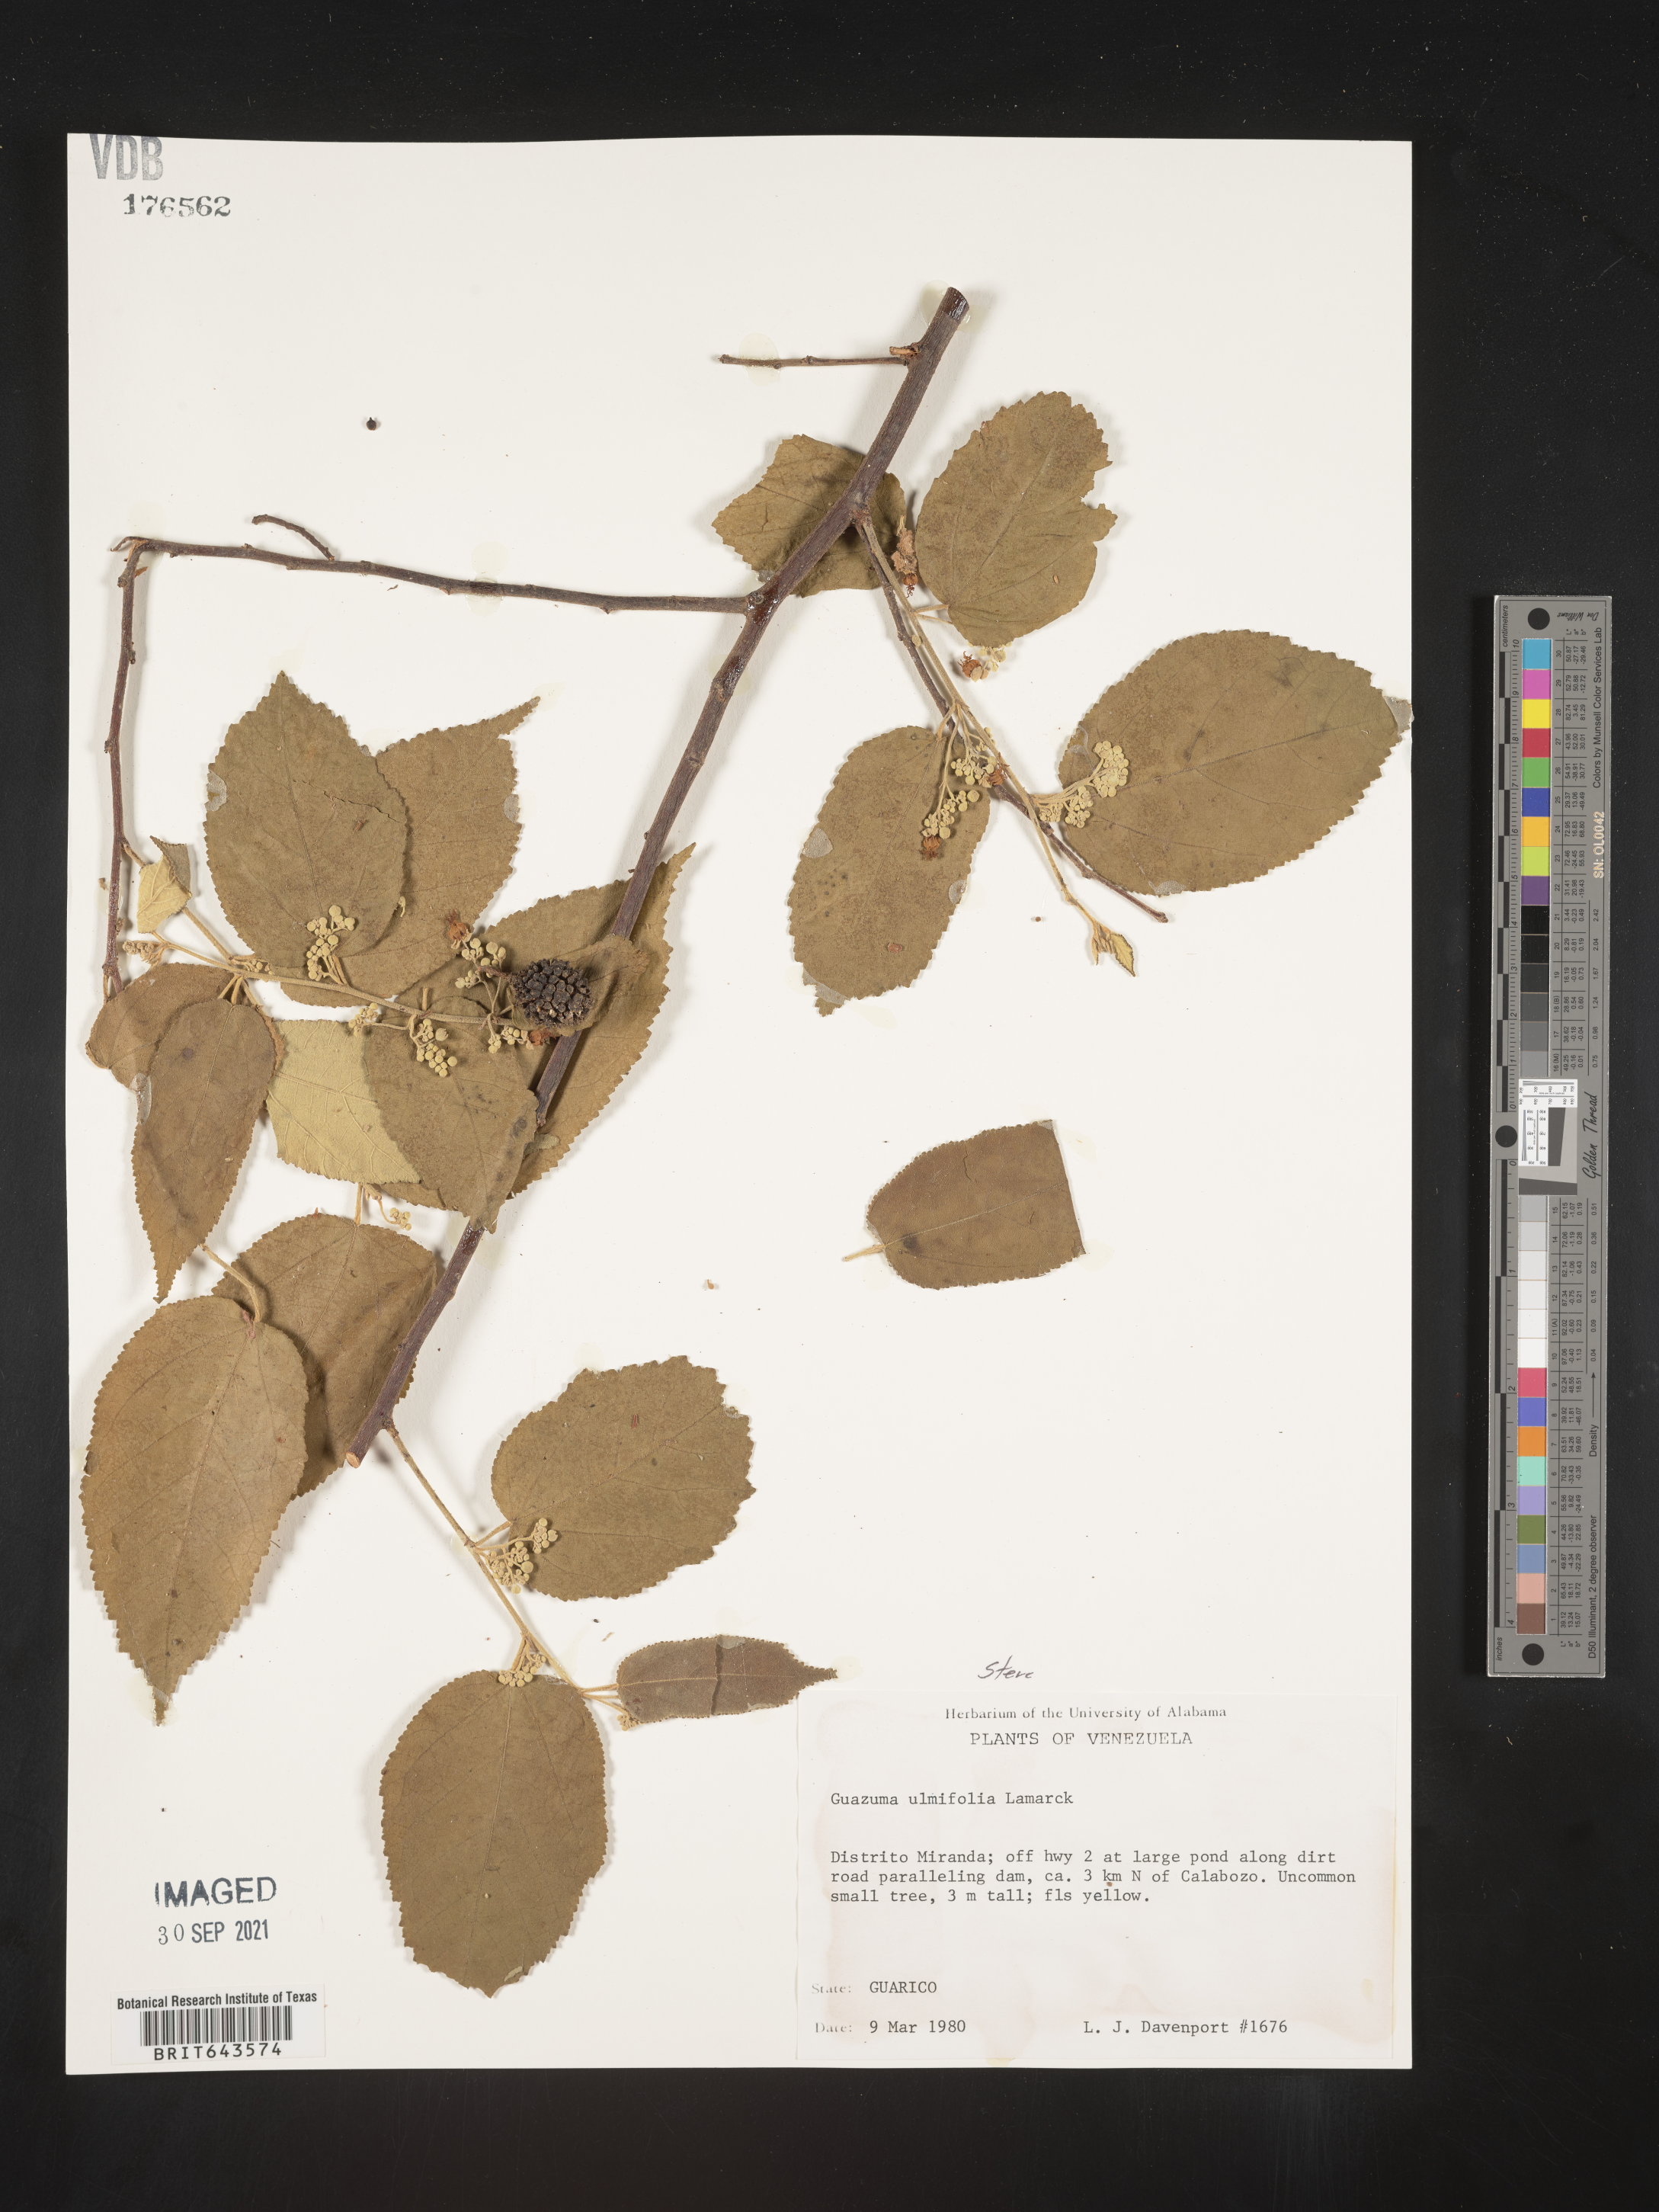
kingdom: Plantae
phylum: Tracheophyta
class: Magnoliopsida
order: Malvales
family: Malvaceae
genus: Guazuma
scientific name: Guazuma
